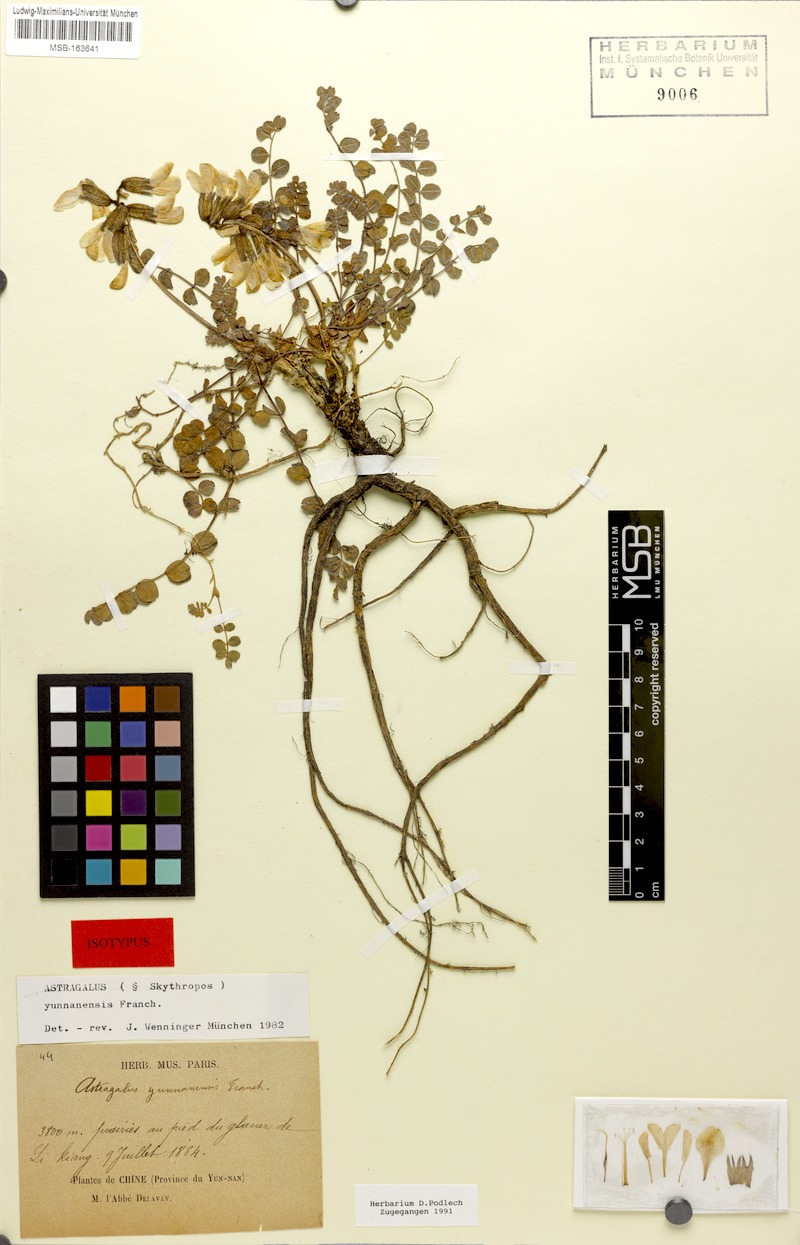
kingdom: Plantae
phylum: Tracheophyta
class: Magnoliopsida
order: Fabales
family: Fabaceae
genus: Astragalus
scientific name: Astragalus yunnanensis
